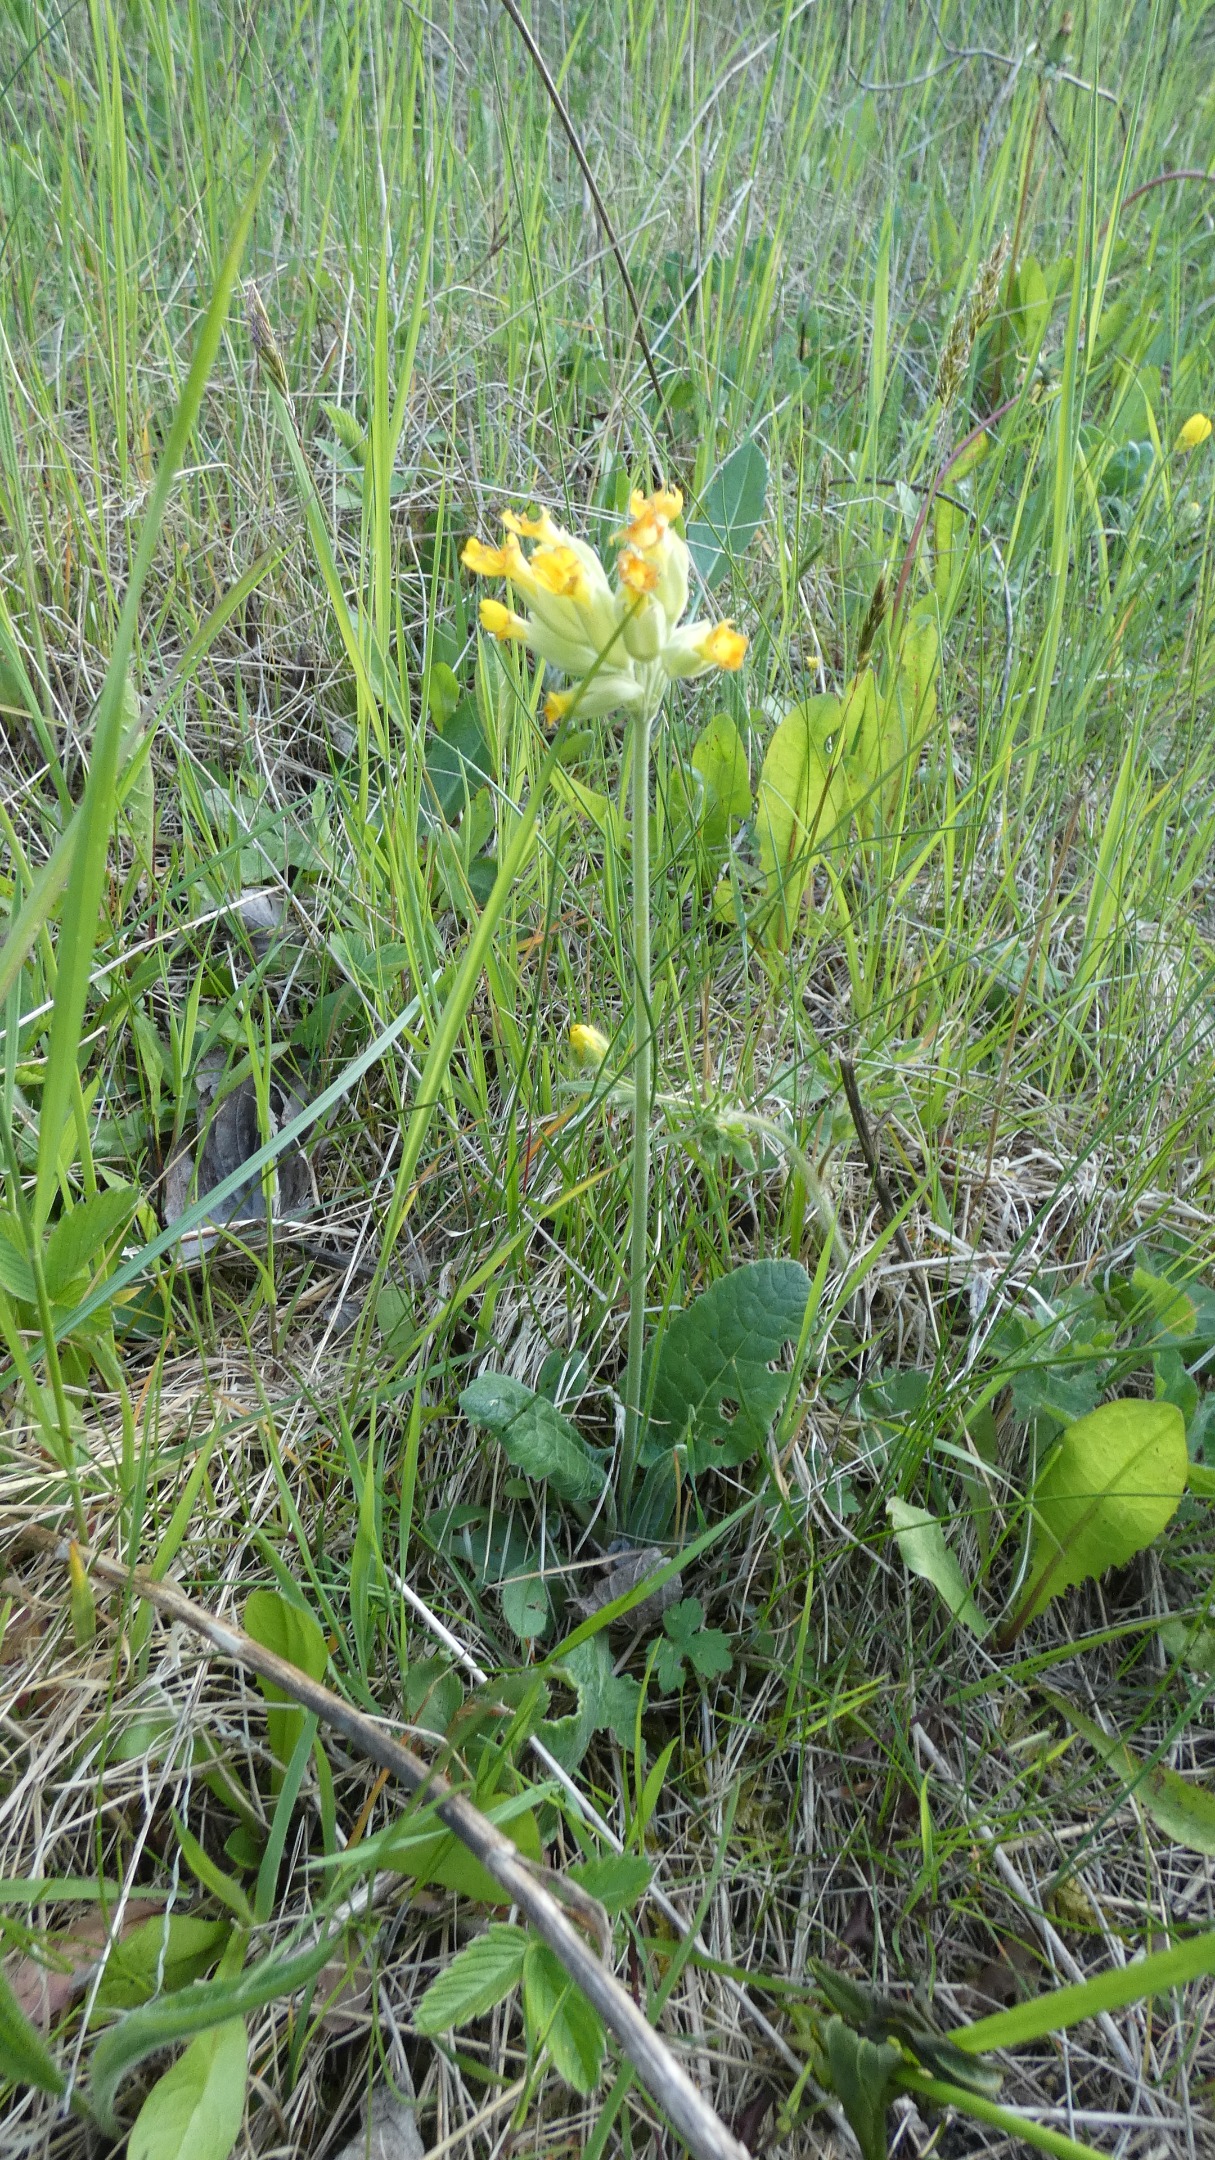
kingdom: Plantae
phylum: Tracheophyta
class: Magnoliopsida
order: Ericales
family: Primulaceae
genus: Primula
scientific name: Primula veris
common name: Hulkravet kodriver
